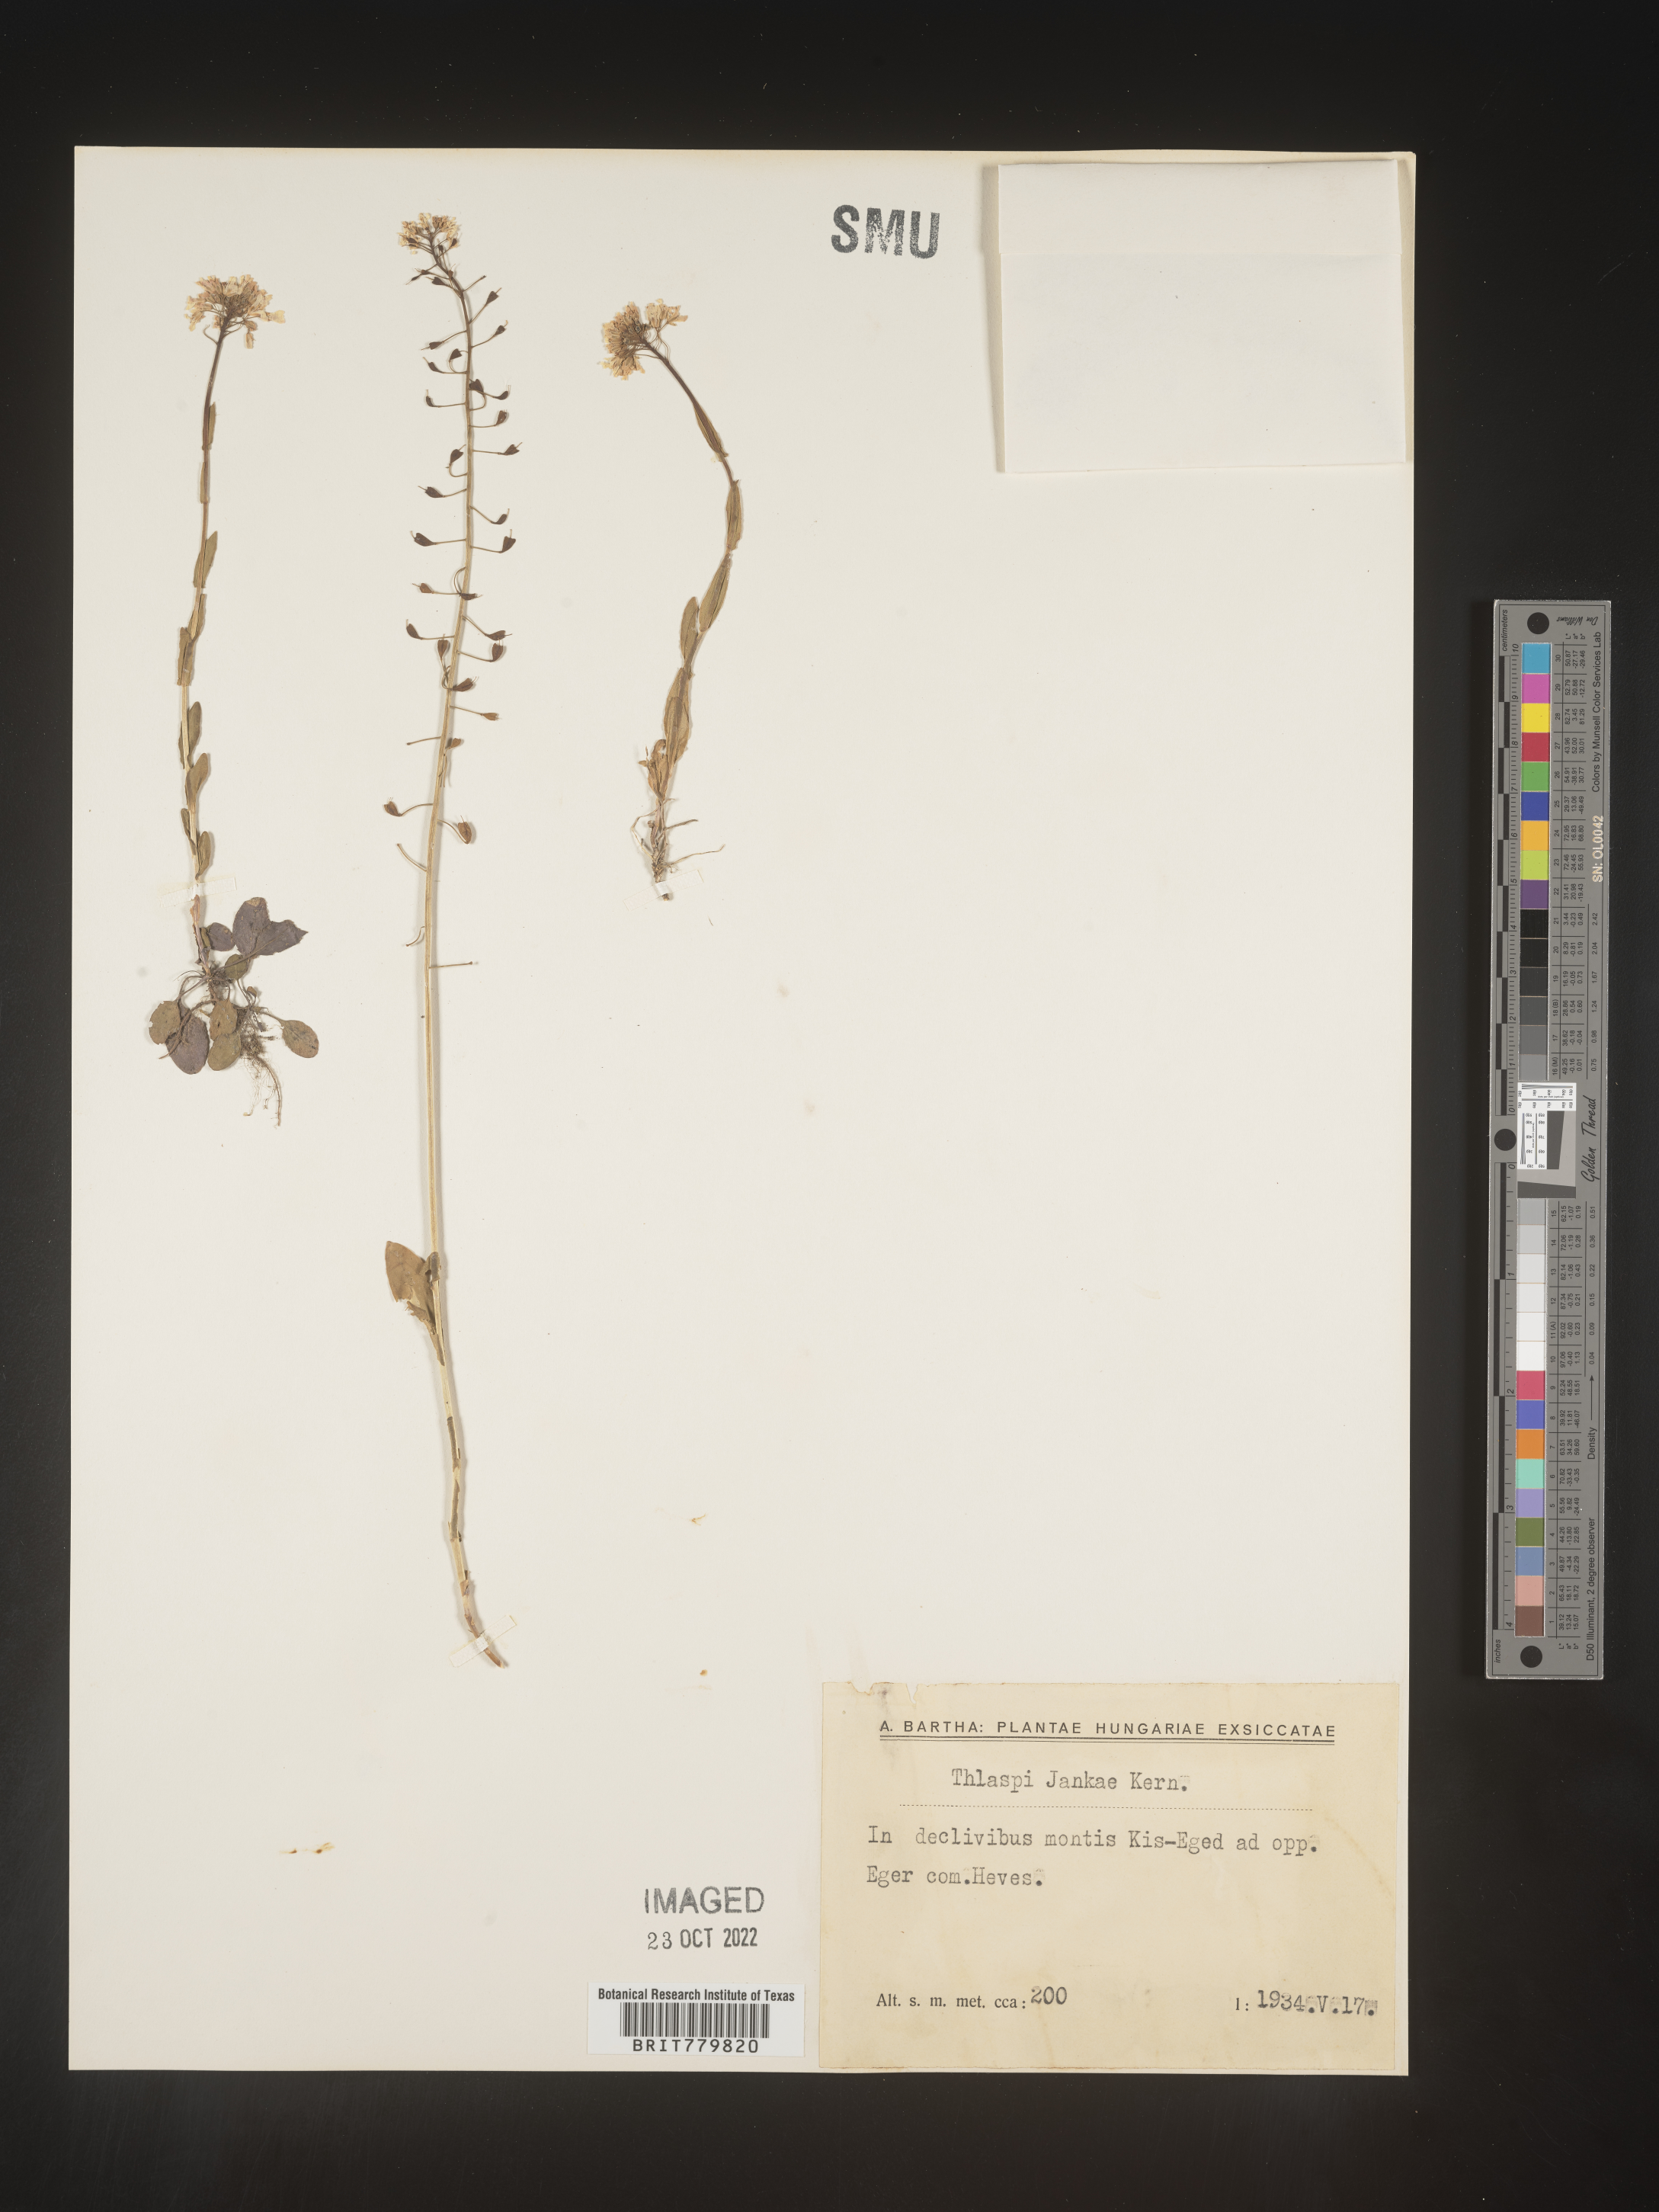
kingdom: Plantae
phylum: Tracheophyta
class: Magnoliopsida
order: Brassicales
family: Brassicaceae
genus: Thlaspi
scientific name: Thlaspi
